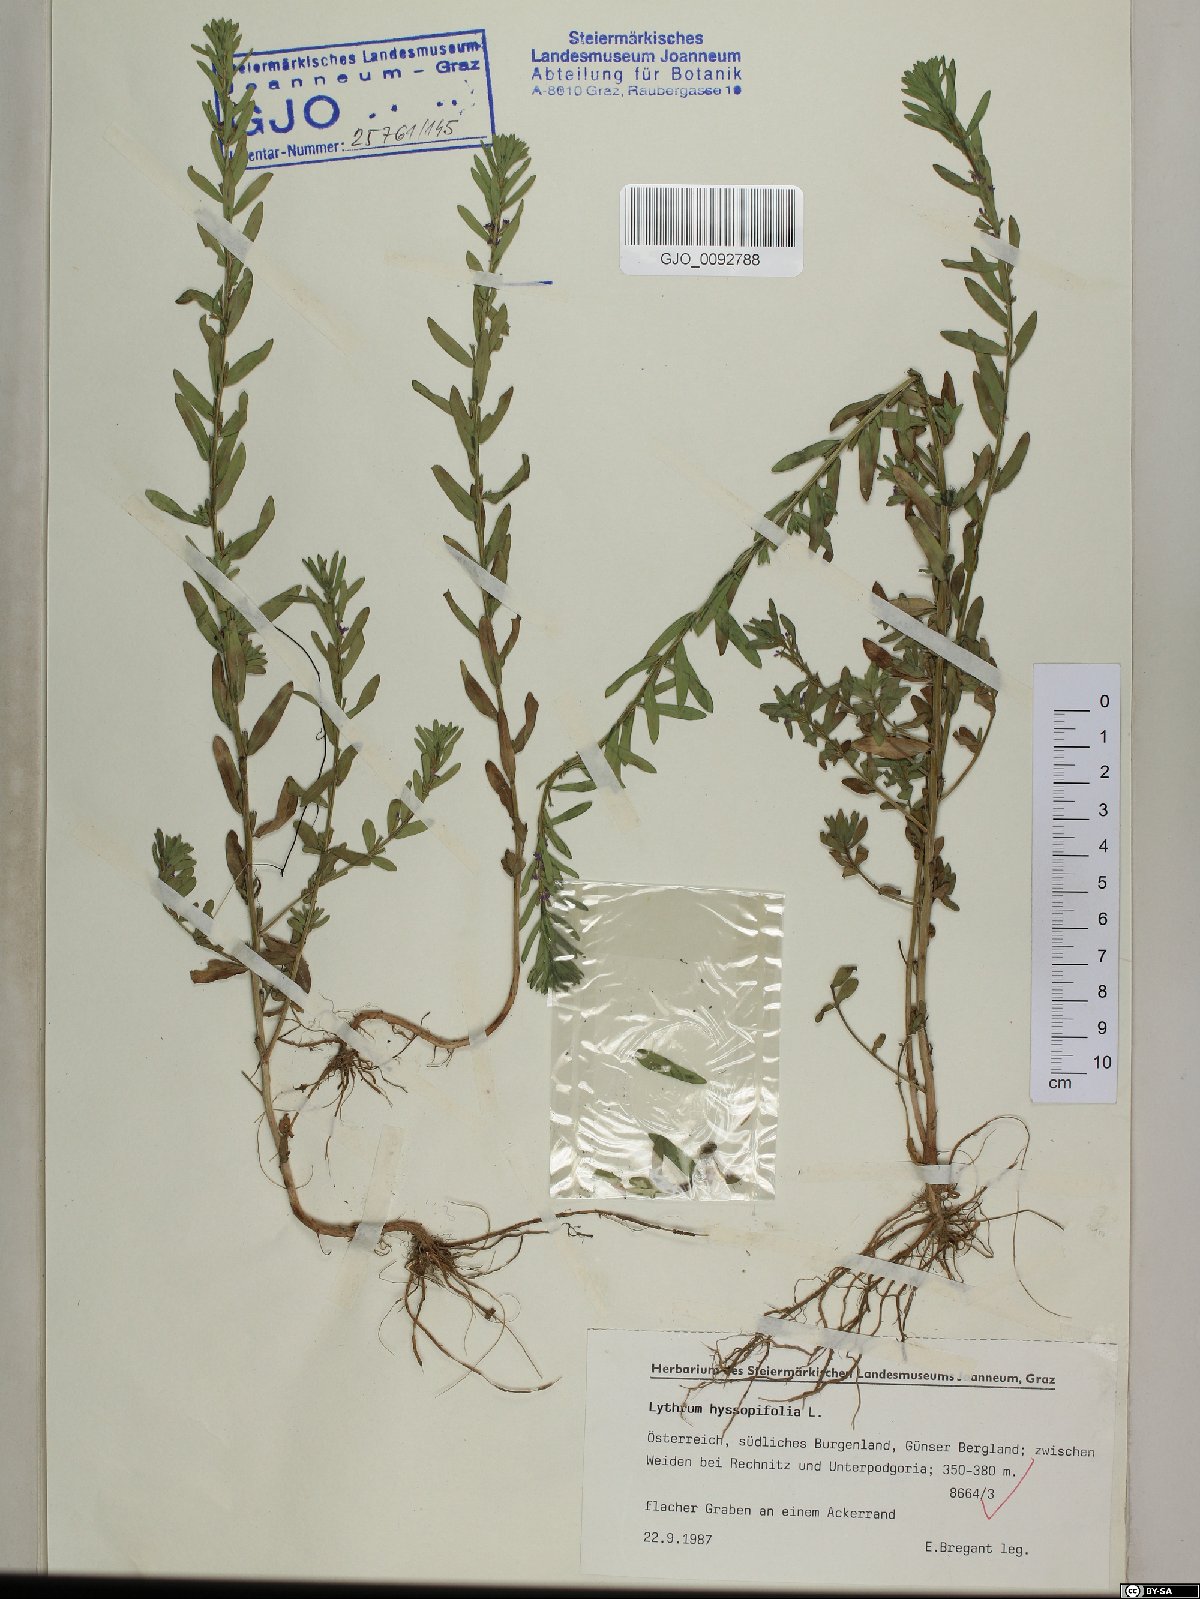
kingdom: Plantae
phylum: Tracheophyta
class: Magnoliopsida
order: Myrtales
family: Lythraceae
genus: Lythrum
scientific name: Lythrum hyssopifolia
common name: Grass-poly
